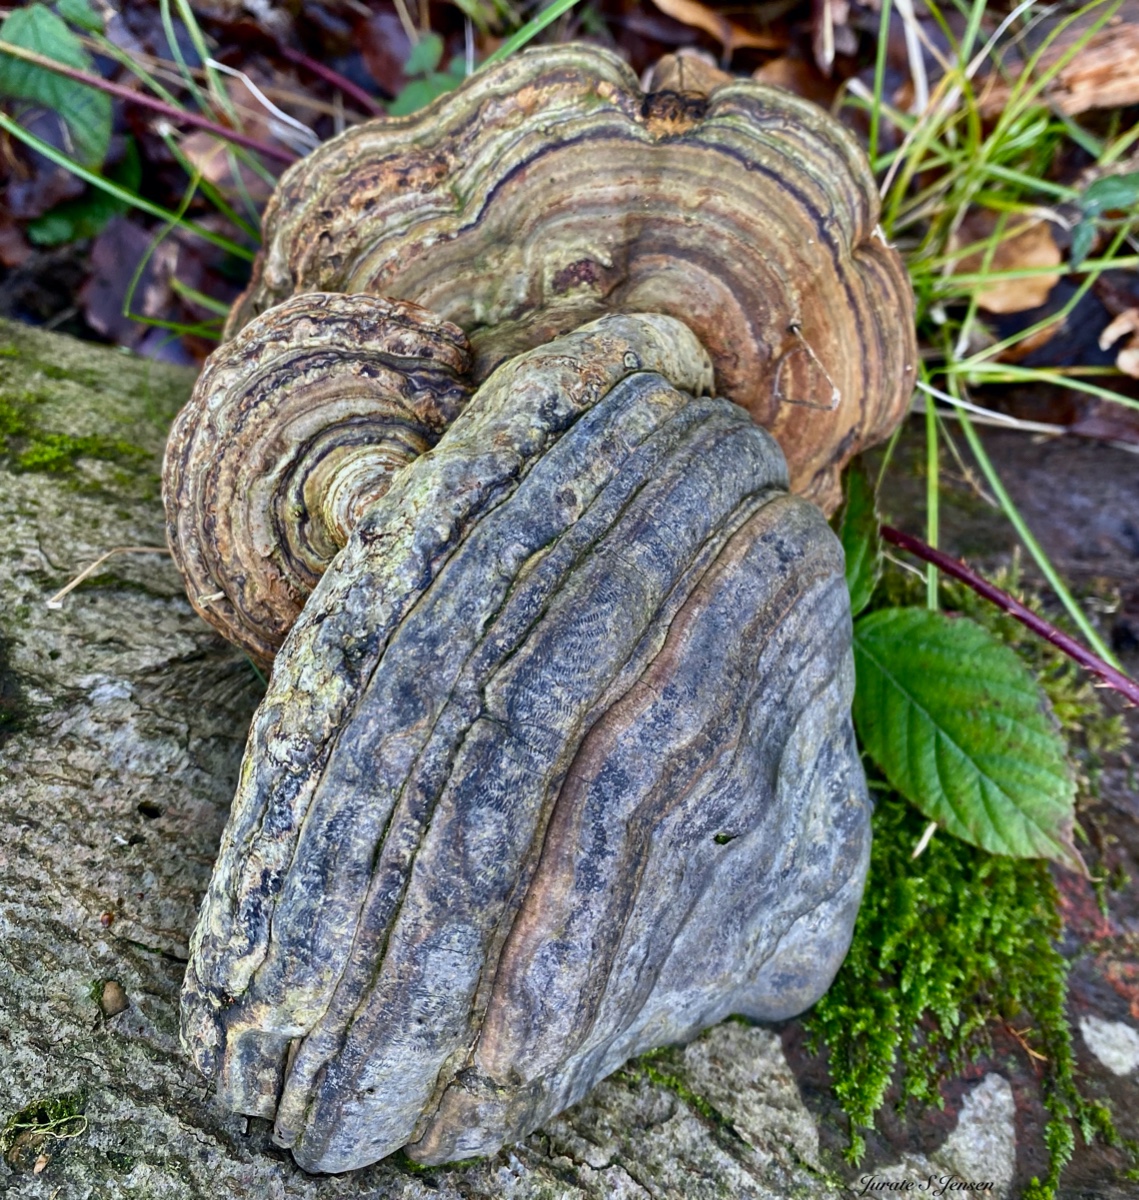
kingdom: Fungi
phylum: Basidiomycota
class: Agaricomycetes
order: Polyporales
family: Polyporaceae
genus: Fomes
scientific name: Fomes fomentarius
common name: tøndersvamp
